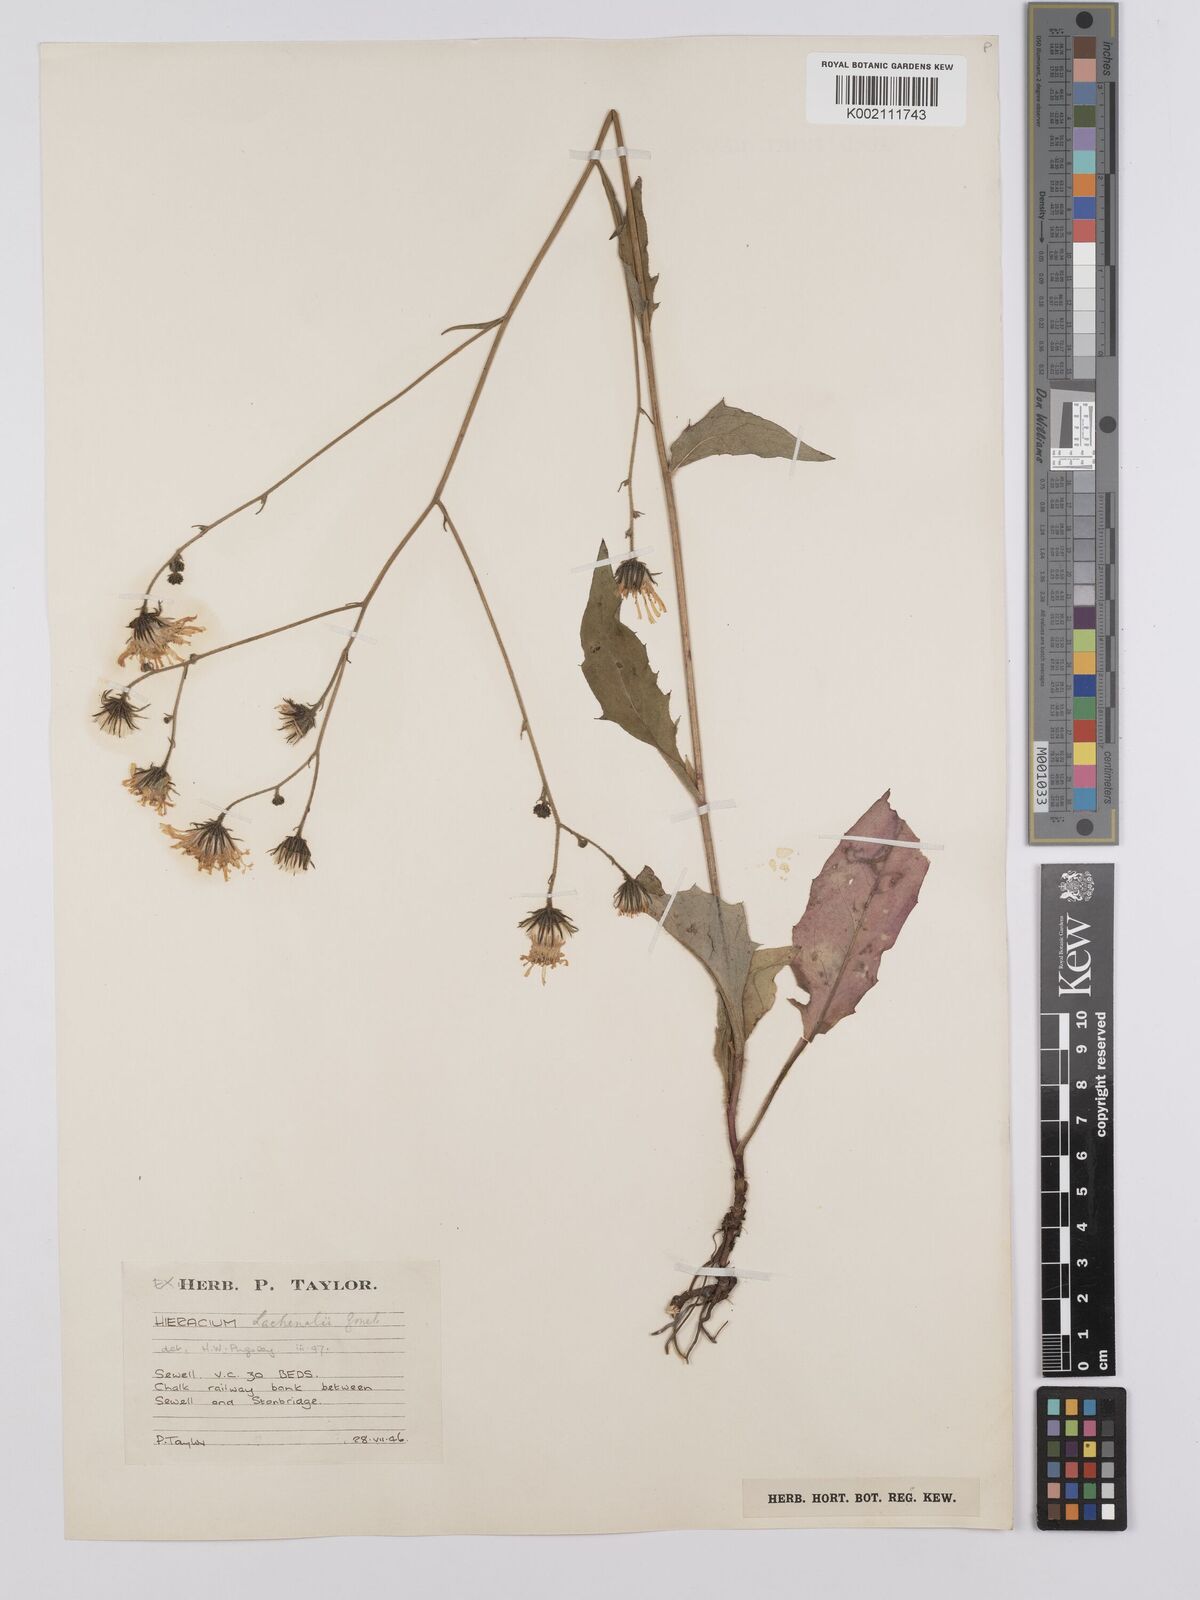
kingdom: Plantae
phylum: Tracheophyta
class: Magnoliopsida
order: Asterales
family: Asteraceae
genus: Hieracium
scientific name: Hieracium lachenalii
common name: Common hawkweed
